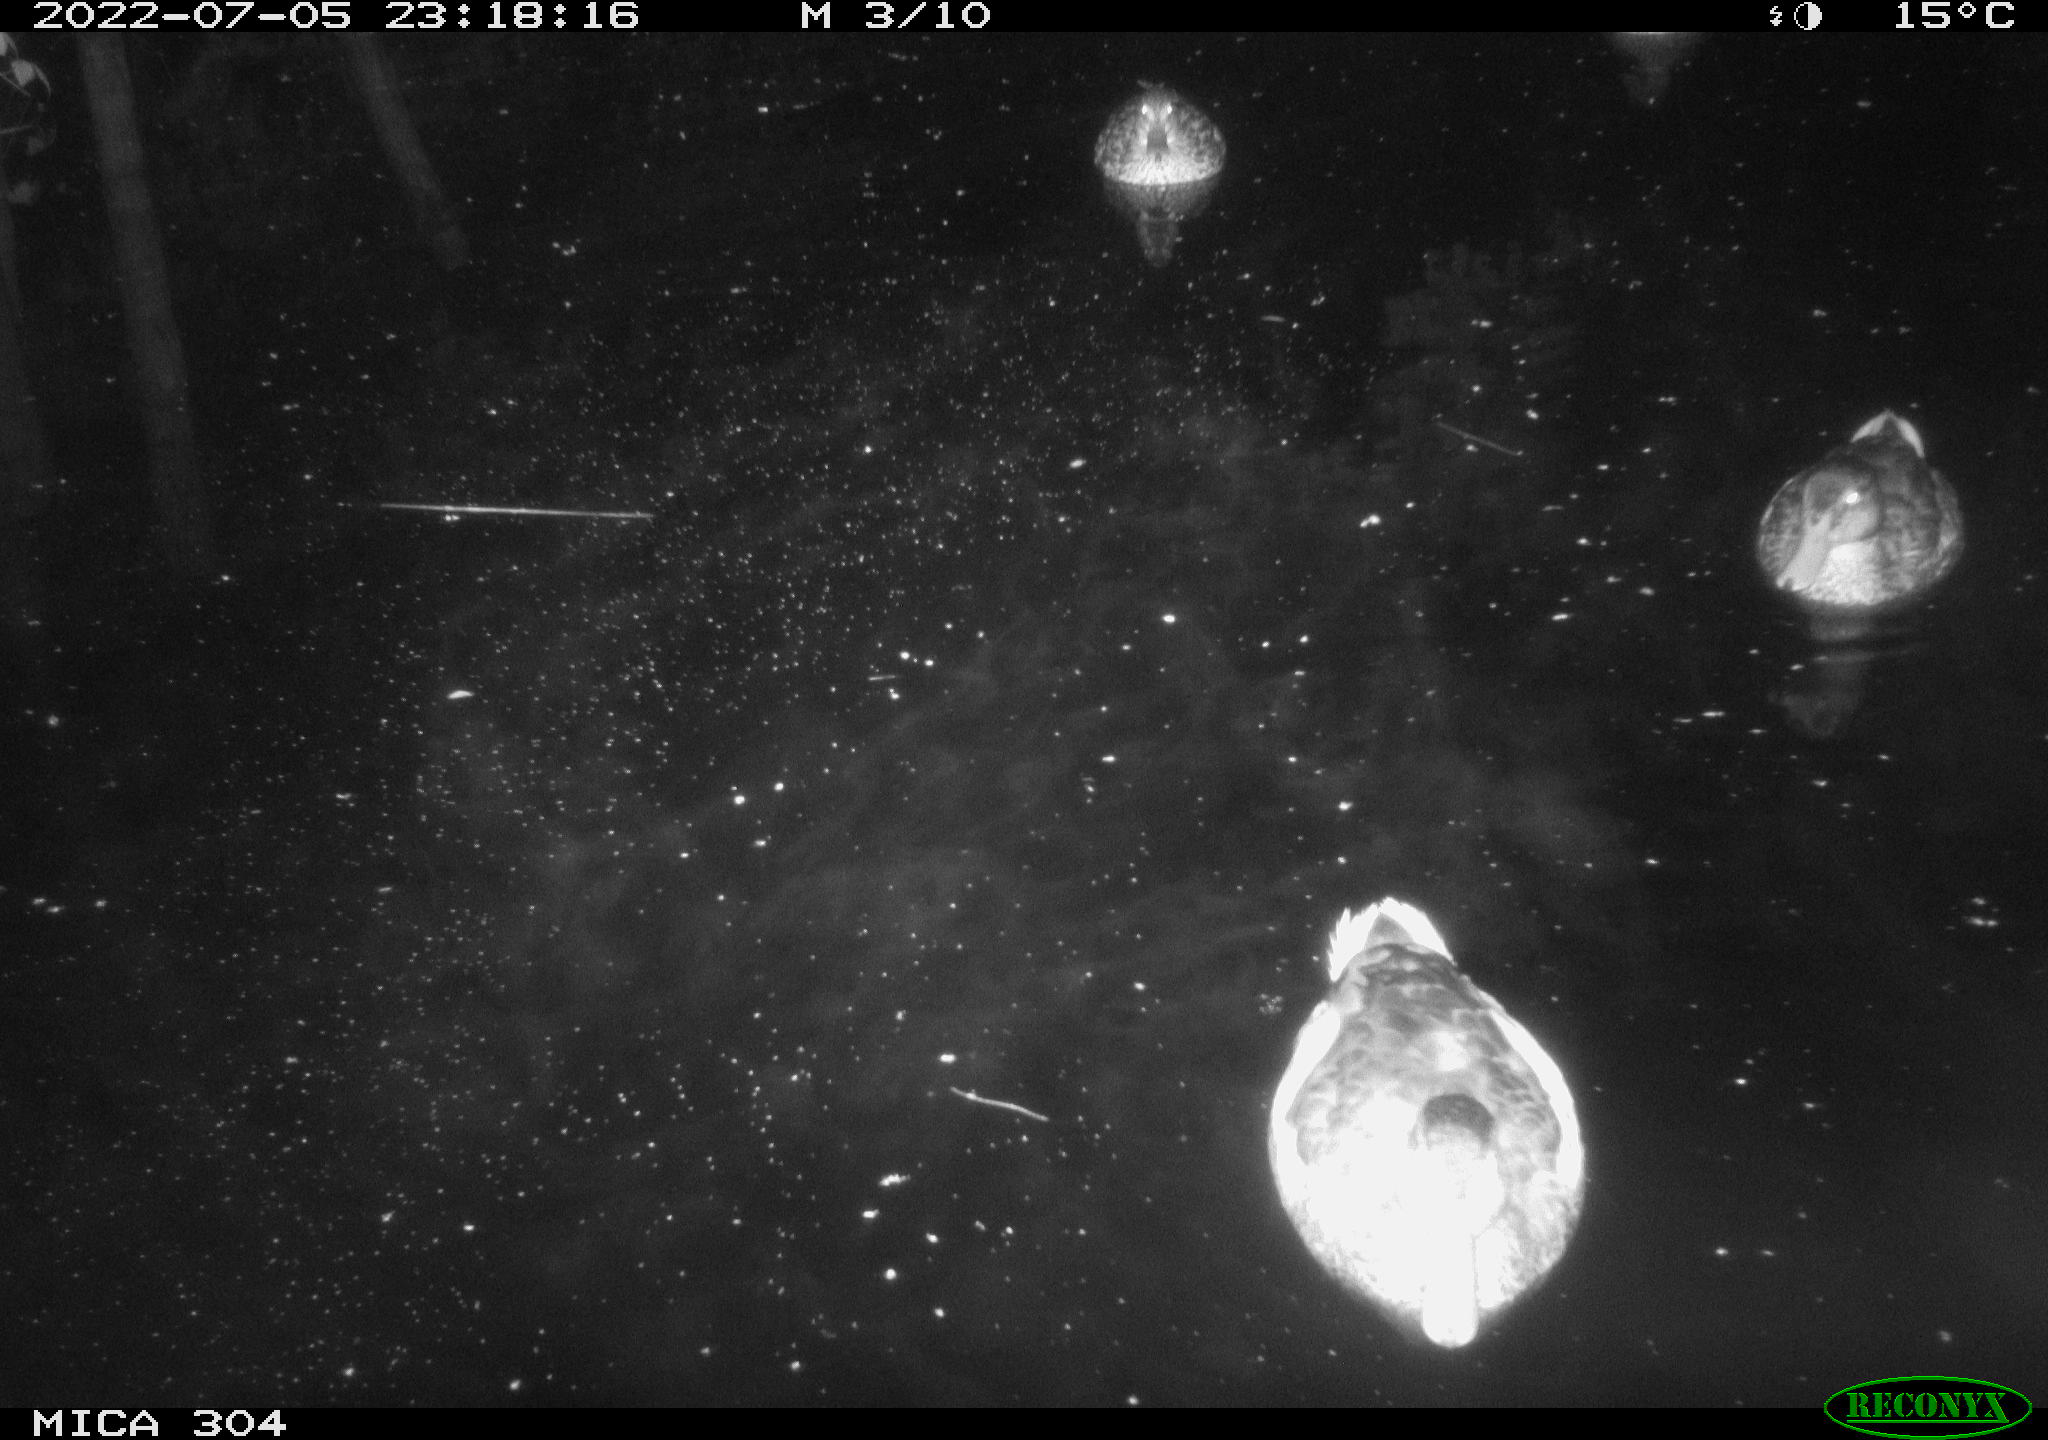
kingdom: Animalia
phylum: Chordata
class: Aves
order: Anseriformes
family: Anatidae
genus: Anas
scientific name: Anas platyrhynchos
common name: Mallard
